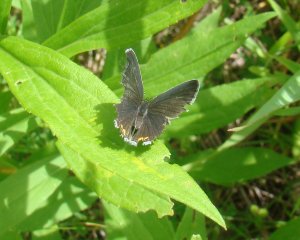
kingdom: Animalia
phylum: Arthropoda
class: Insecta
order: Lepidoptera
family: Lycaenidae
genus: Elkalyce
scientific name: Elkalyce comyntas
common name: Eastern Tailed-Blue
